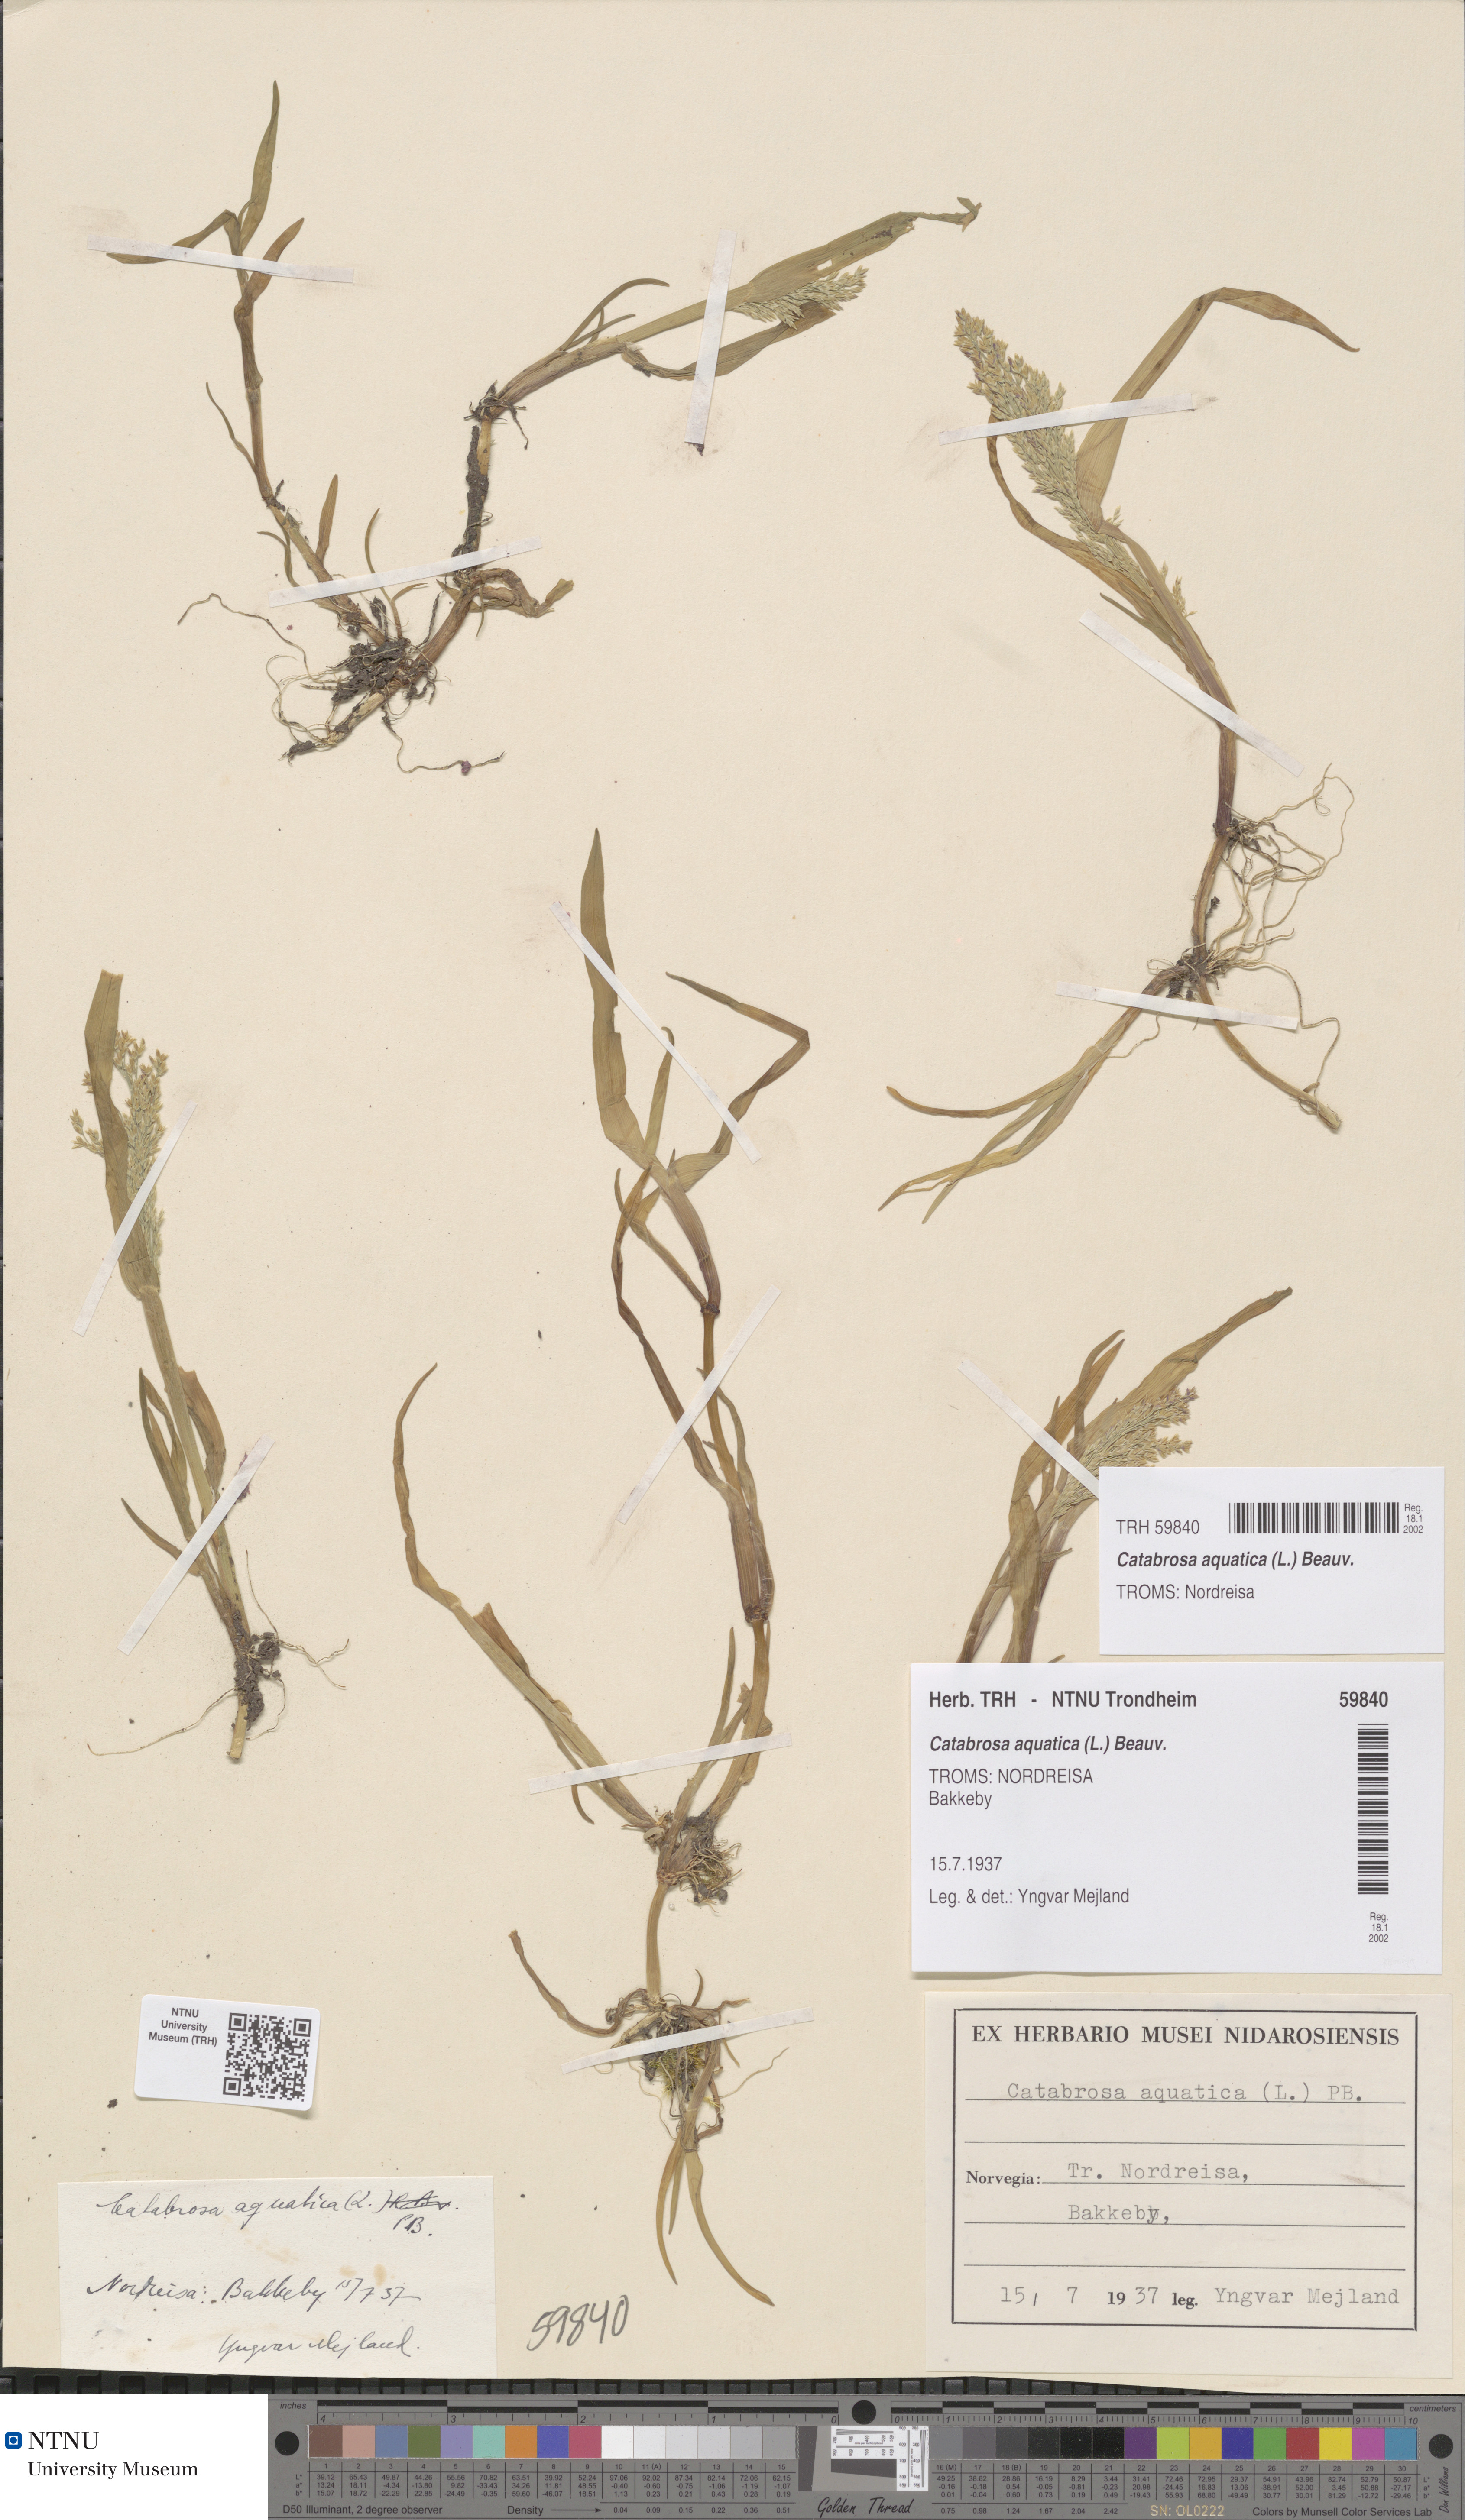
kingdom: Plantae
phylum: Tracheophyta
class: Liliopsida
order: Poales
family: Poaceae
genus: Catabrosa
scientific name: Catabrosa aquatica
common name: Whorl-grass
